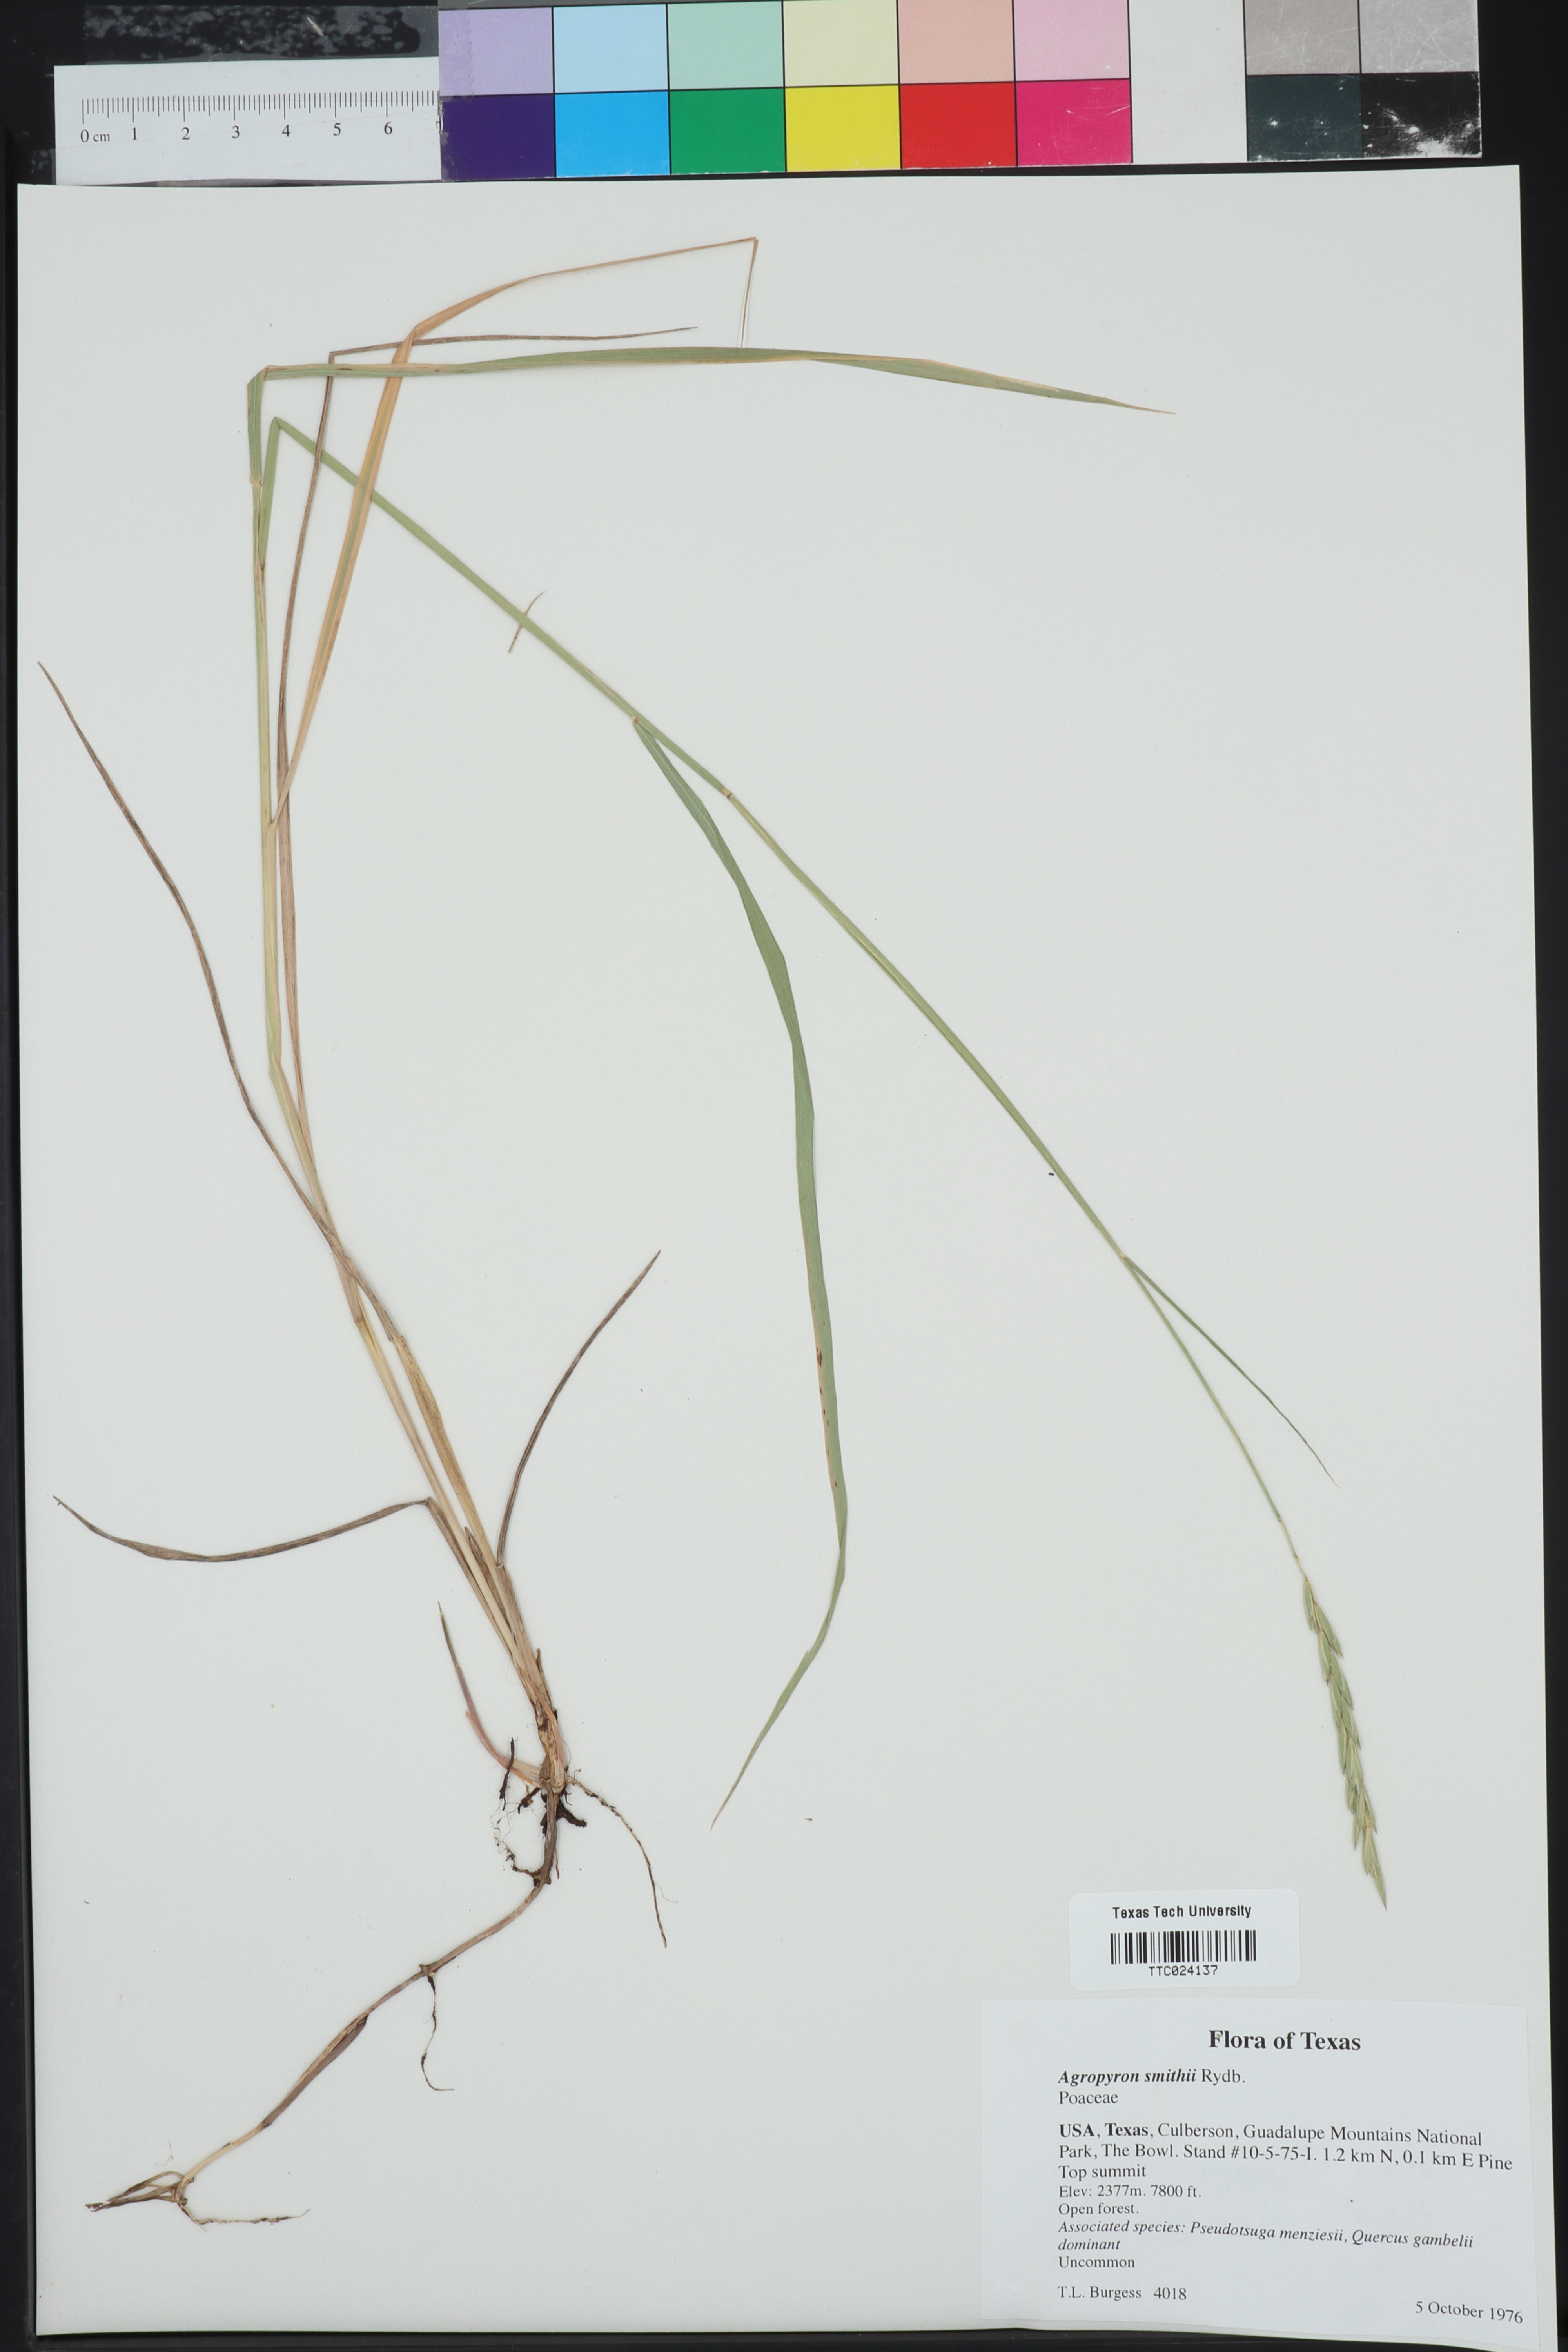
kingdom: Plantae
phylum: Tracheophyta
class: Liliopsida
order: Poales
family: Poaceae
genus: Elymus
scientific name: Elymus smithii
